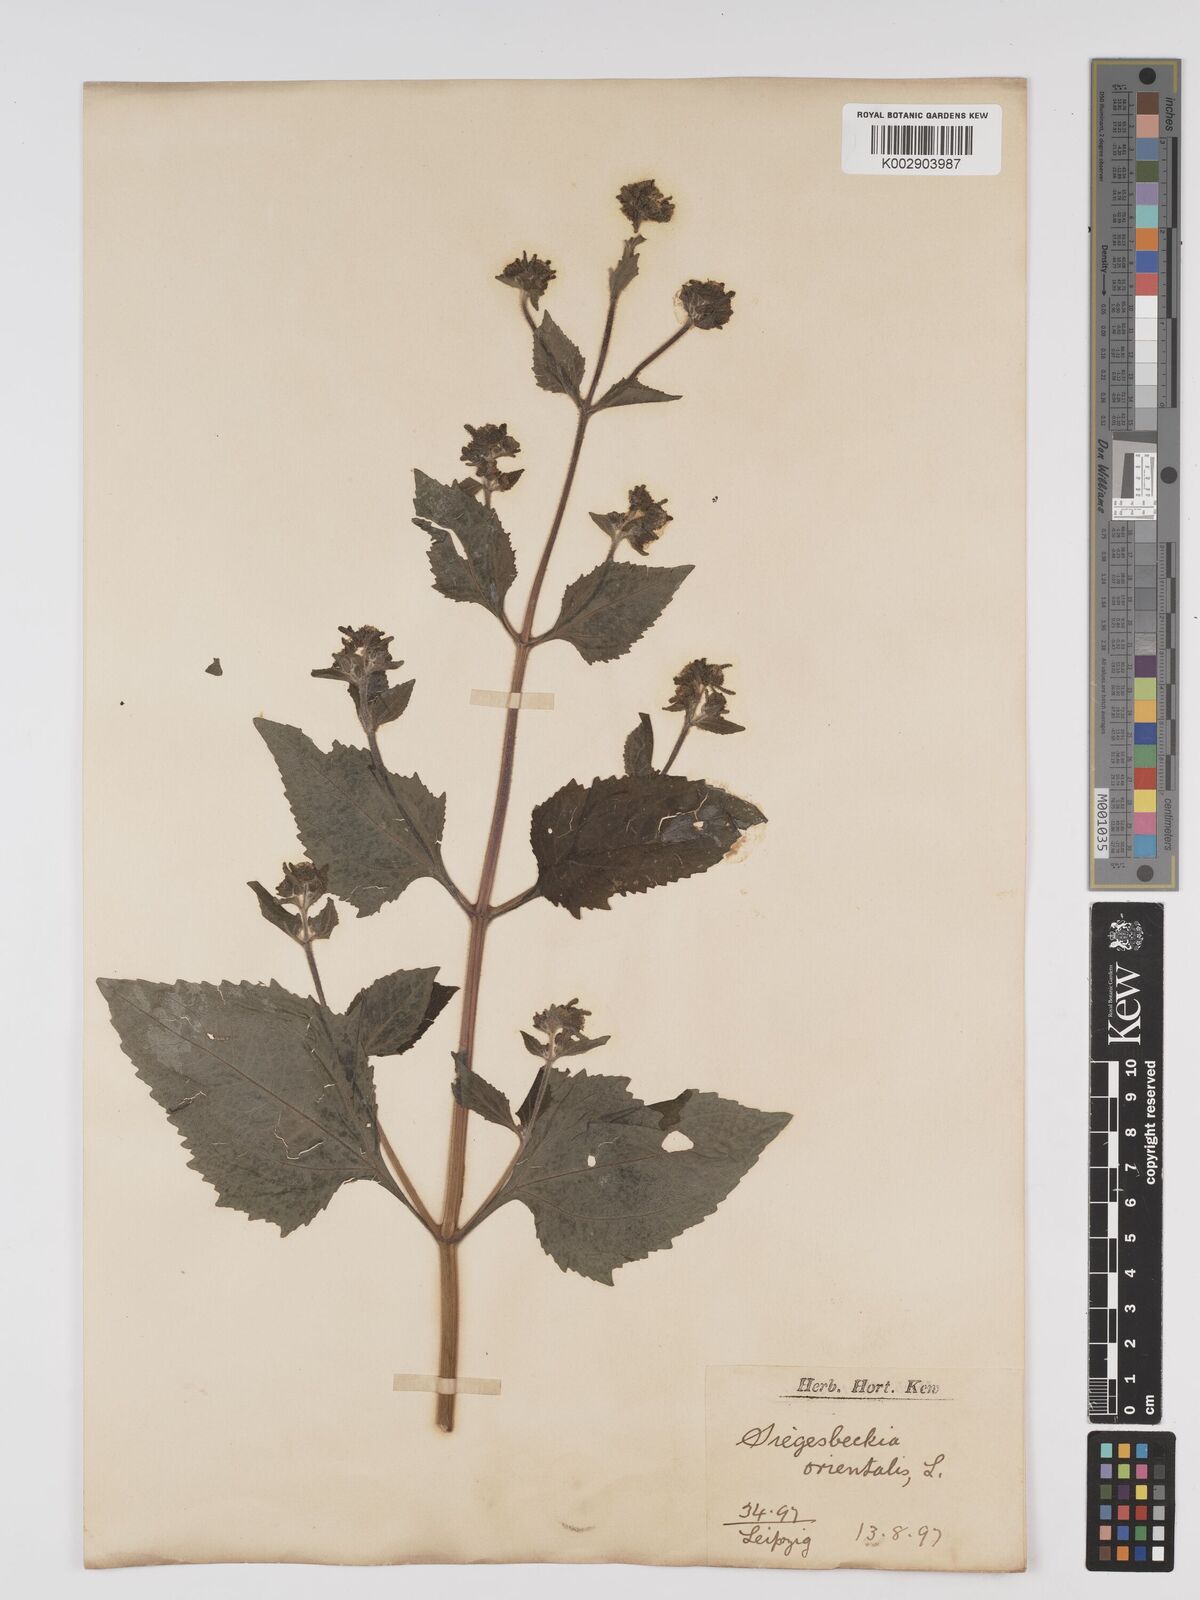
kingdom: Plantae
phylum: Tracheophyta
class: Magnoliopsida
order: Asterales
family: Asteraceae
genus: Sigesbeckia
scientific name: Sigesbeckia orientalis
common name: Eastern st paul's-wort
